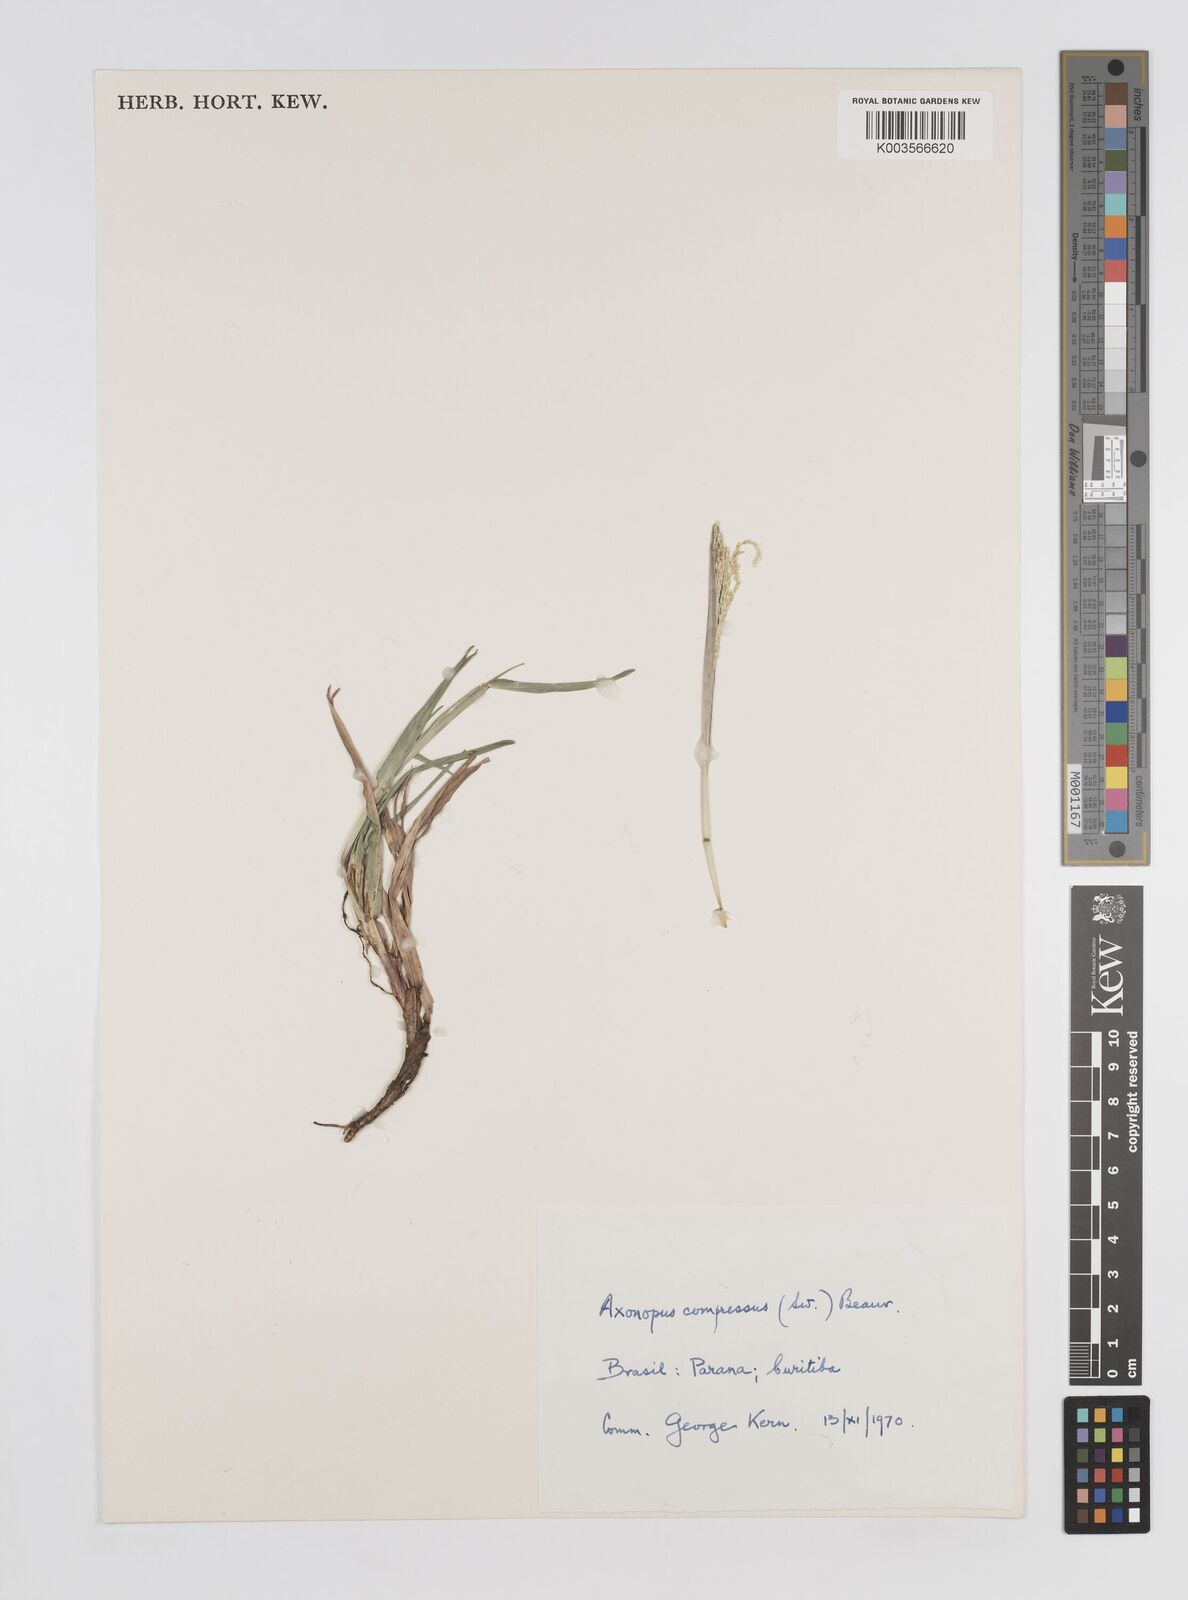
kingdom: Plantae
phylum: Tracheophyta
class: Liliopsida
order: Poales
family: Poaceae
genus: Axonopus
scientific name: Axonopus compressus
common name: American carpet grass
